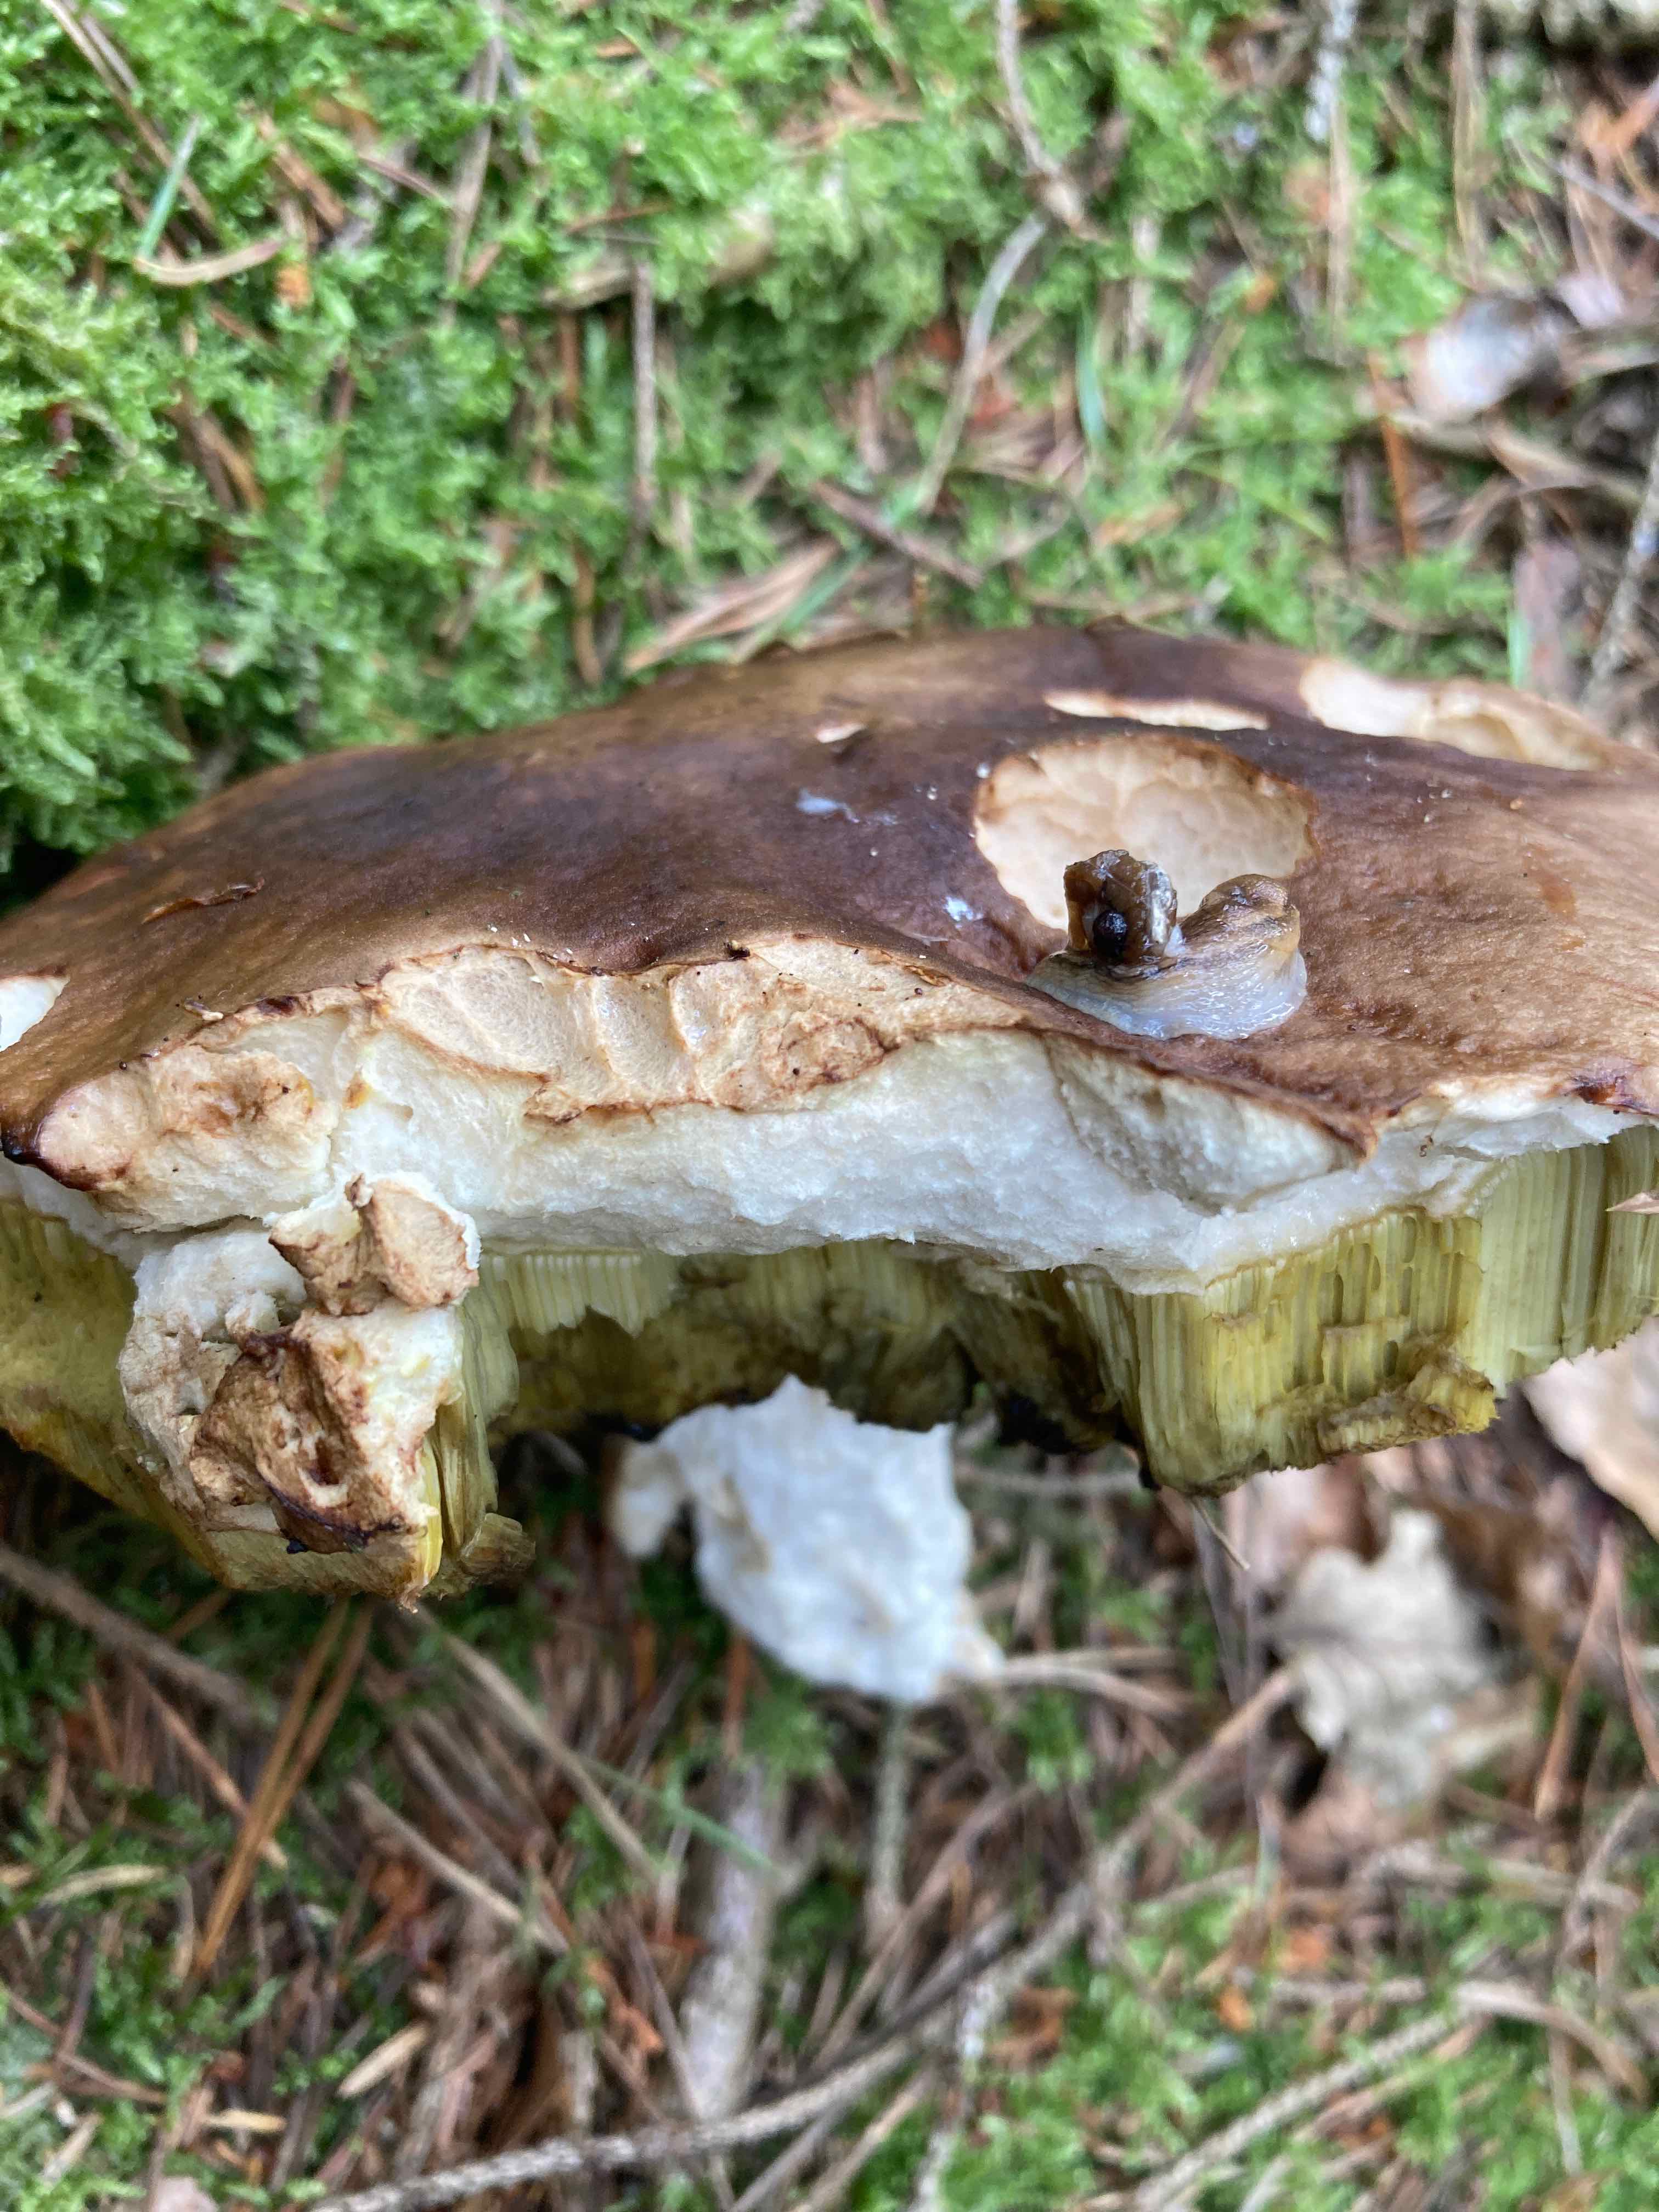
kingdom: Fungi
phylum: Basidiomycota
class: Agaricomycetes
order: Boletales
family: Boletaceae
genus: Boletus
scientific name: Boletus edulis
